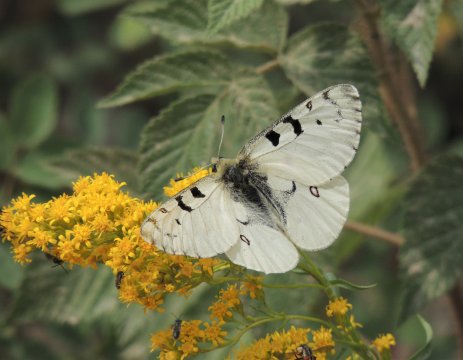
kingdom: Animalia
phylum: Arthropoda
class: Insecta
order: Lepidoptera
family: Papilionidae
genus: Parnassius
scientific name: Parnassius smintheus
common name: Rocky Mountain Parnassian
